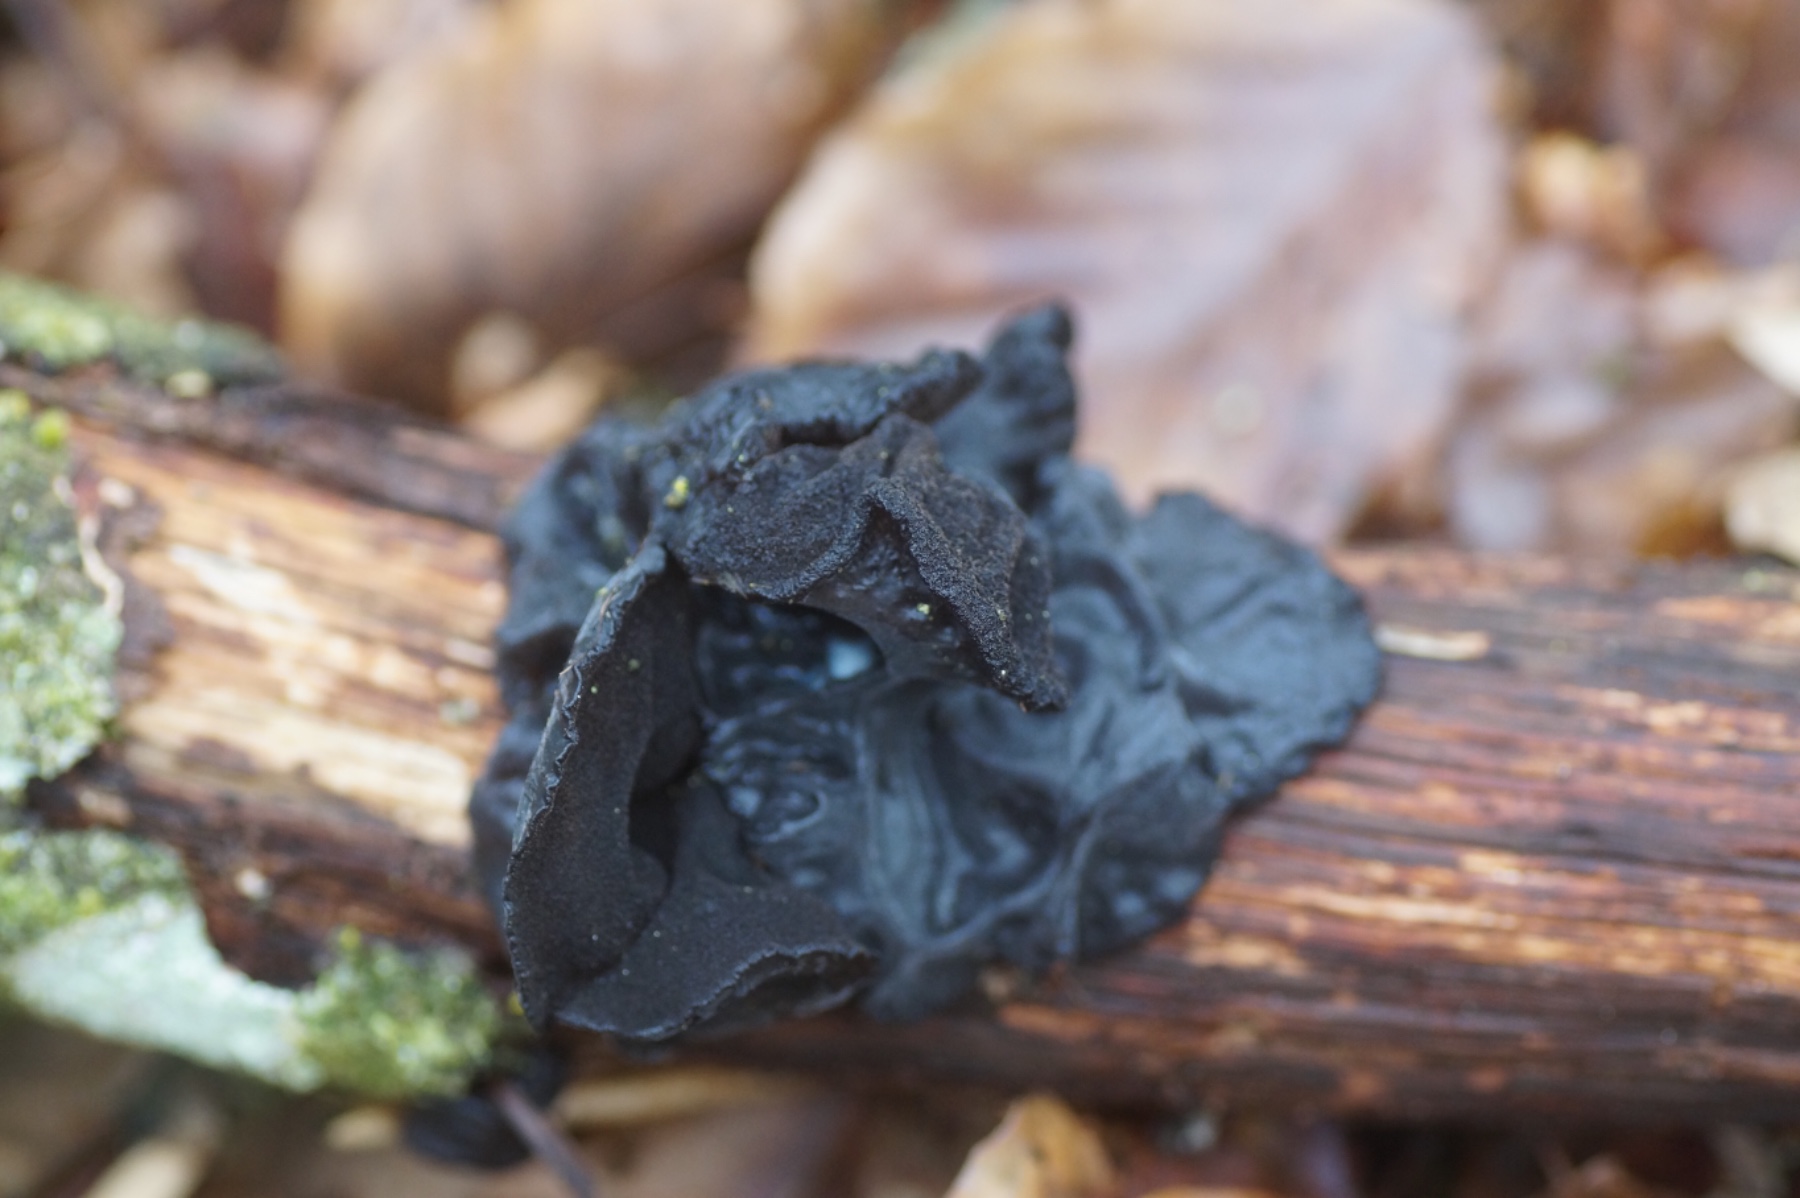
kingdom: Fungi
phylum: Basidiomycota
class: Agaricomycetes
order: Auriculariales
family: Auriculariaceae
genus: Exidia
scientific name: Exidia glandulosa
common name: ege-bævretop
